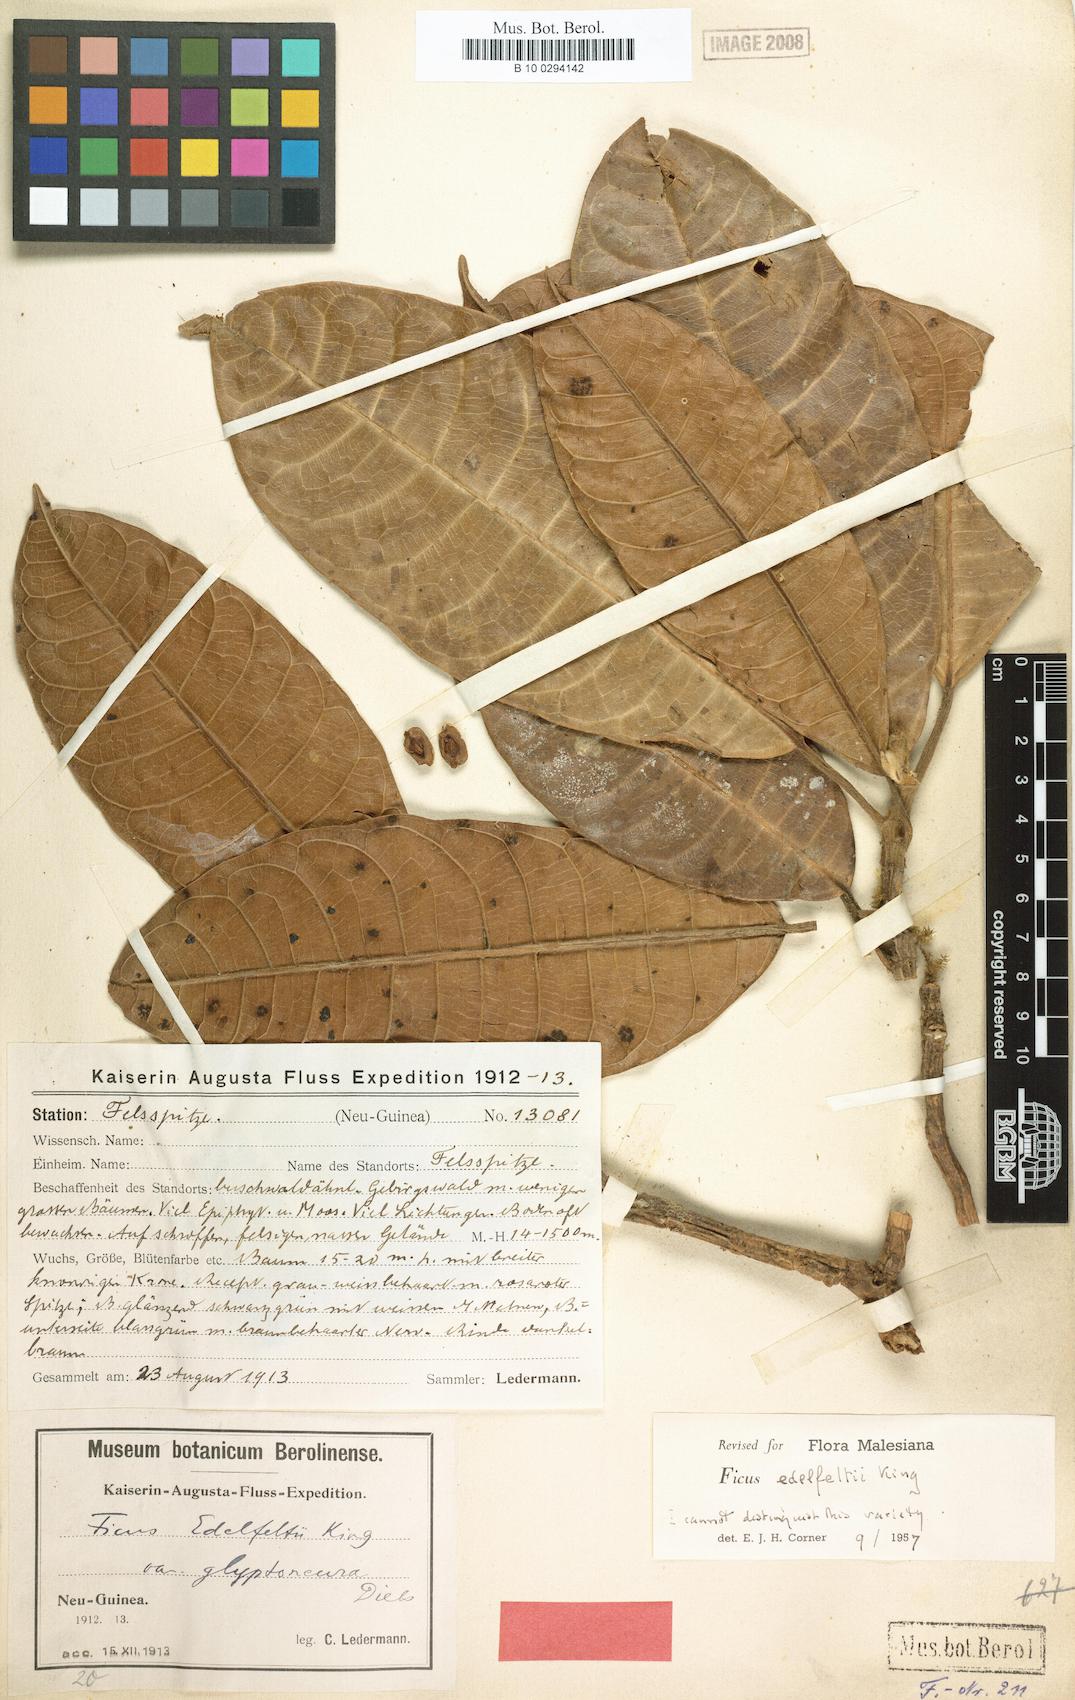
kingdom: Plantae
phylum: Tracheophyta
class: Magnoliopsida
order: Rosales
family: Moraceae
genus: Ficus
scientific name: Ficus edelfeltii
